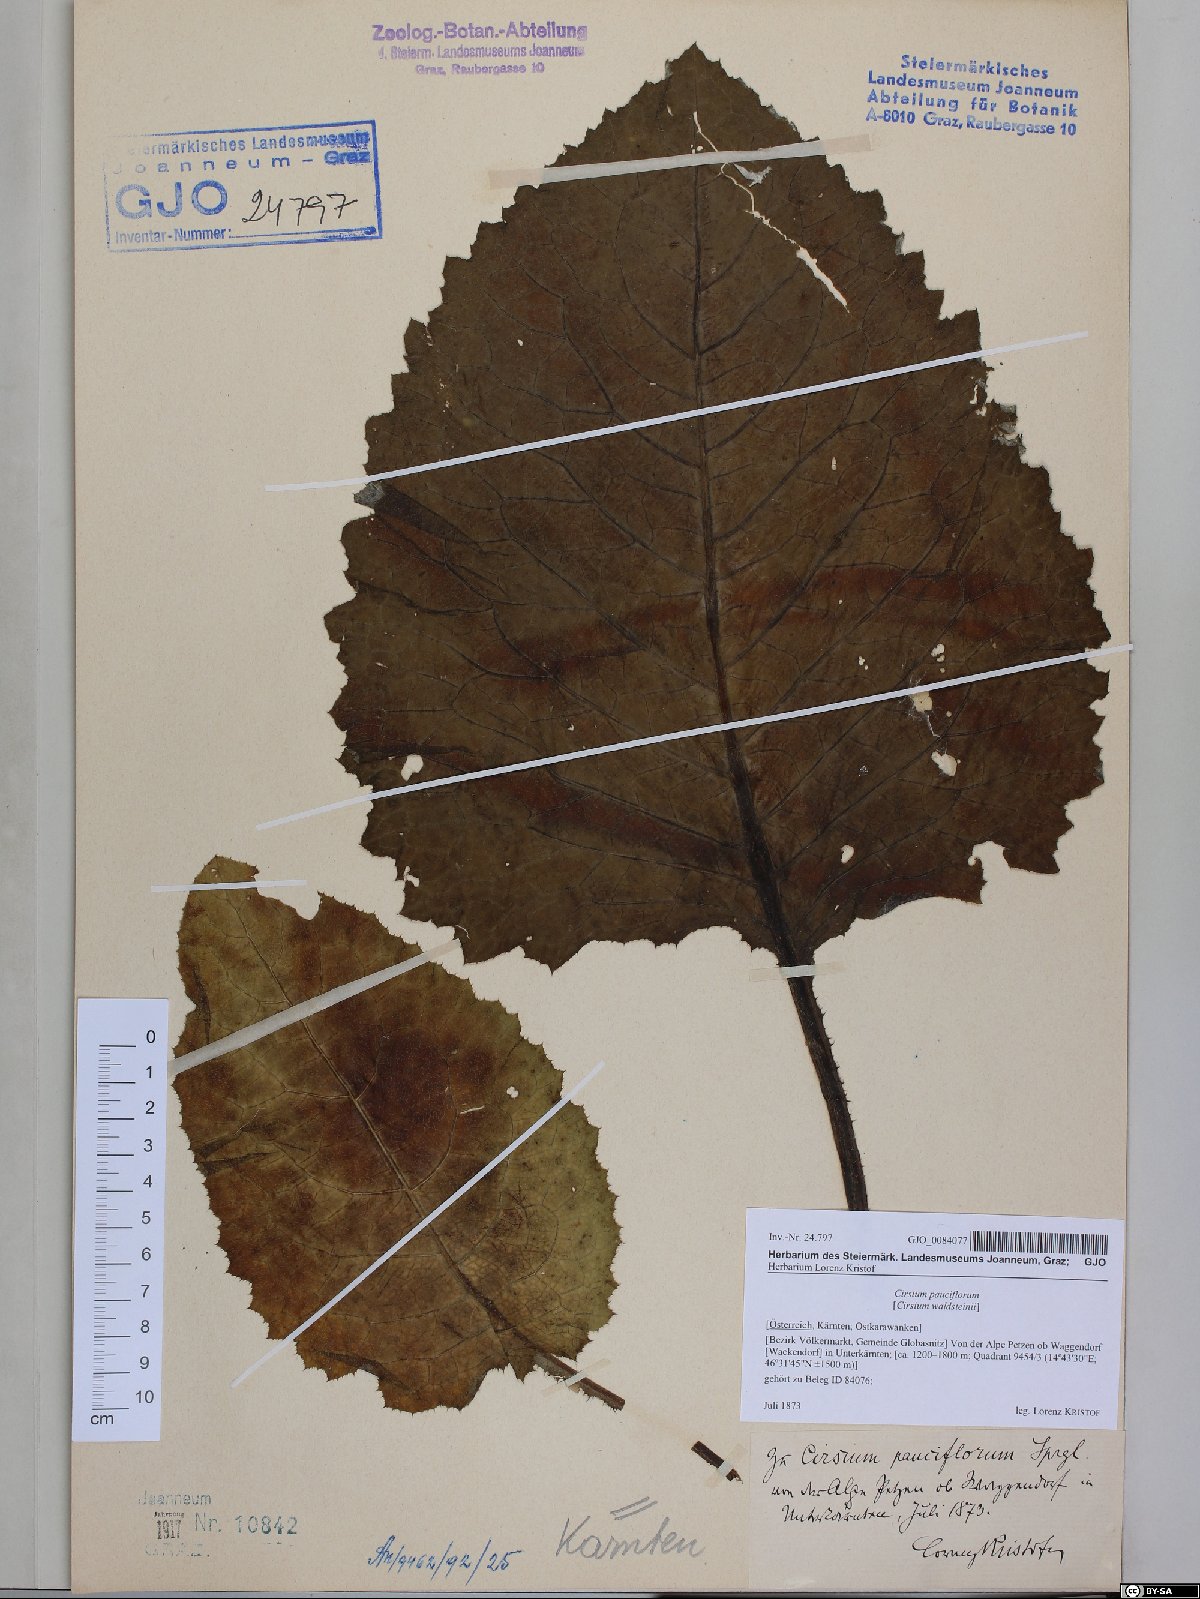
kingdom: Plantae
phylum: Tracheophyta
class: Magnoliopsida
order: Asterales
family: Asteraceae
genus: Cirsium
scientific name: Cirsium greimleri
